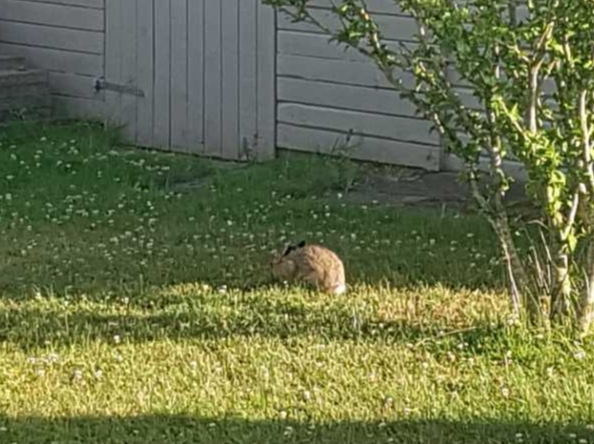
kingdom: Animalia
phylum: Chordata
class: Mammalia
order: Lagomorpha
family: Leporidae
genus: Lepus
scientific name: Lepus europaeus
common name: Hare
